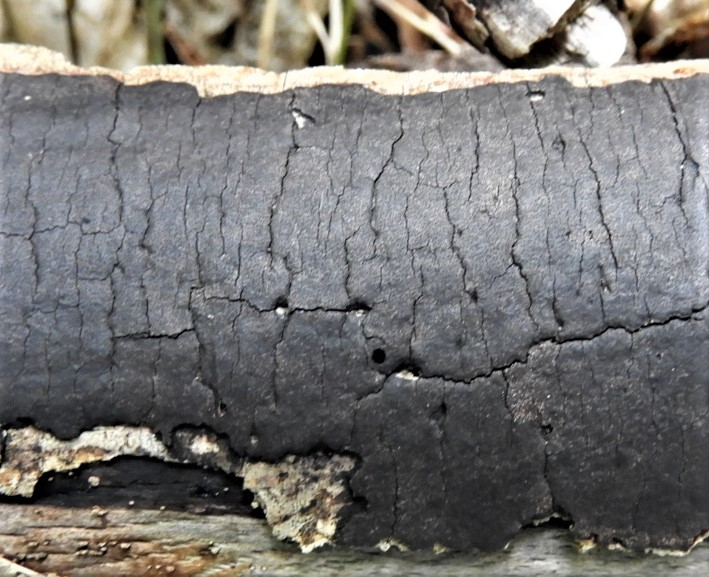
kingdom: Fungi
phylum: Ascomycota
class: Sordariomycetes
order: Xylariales
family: Diatrypaceae
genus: Diatrype
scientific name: Diatrype decorticata
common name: barksprænger-kulskorpe
